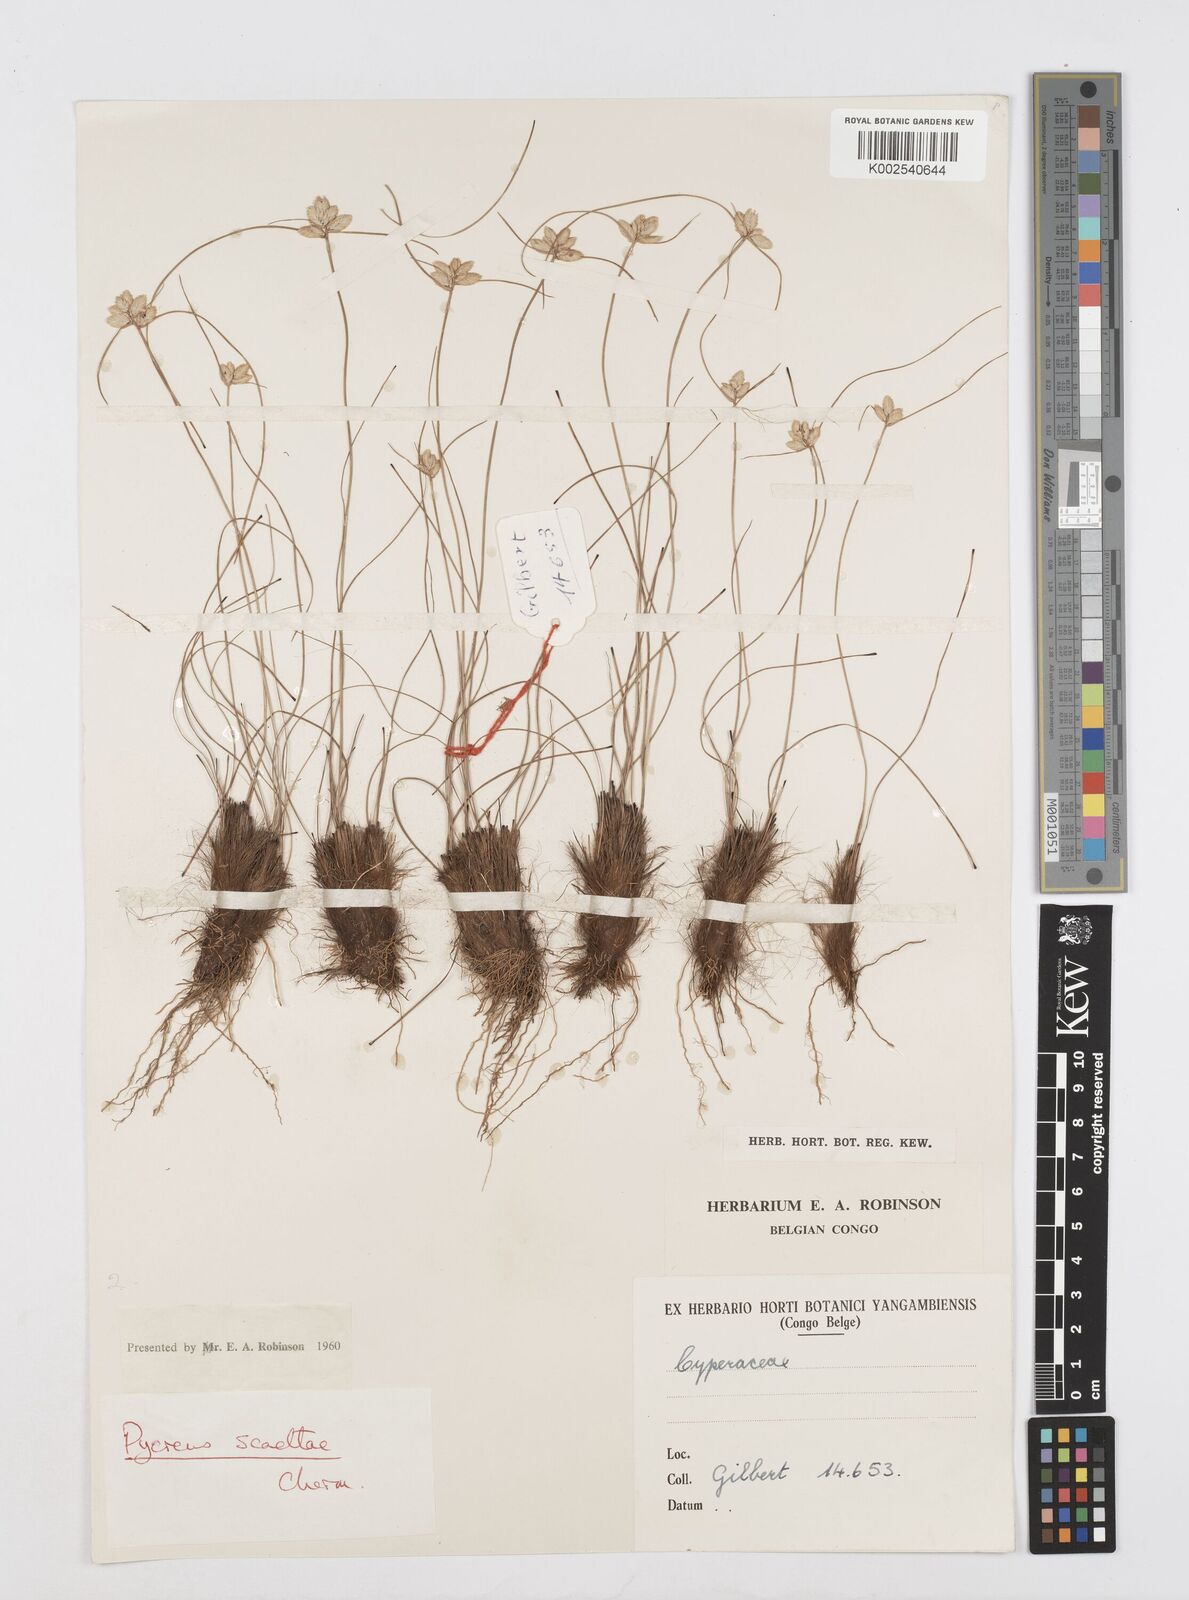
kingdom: Plantae
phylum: Tracheophyta
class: Liliopsida
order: Poales
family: Cyperaceae
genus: Cyperus
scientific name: Cyperus scaettae
